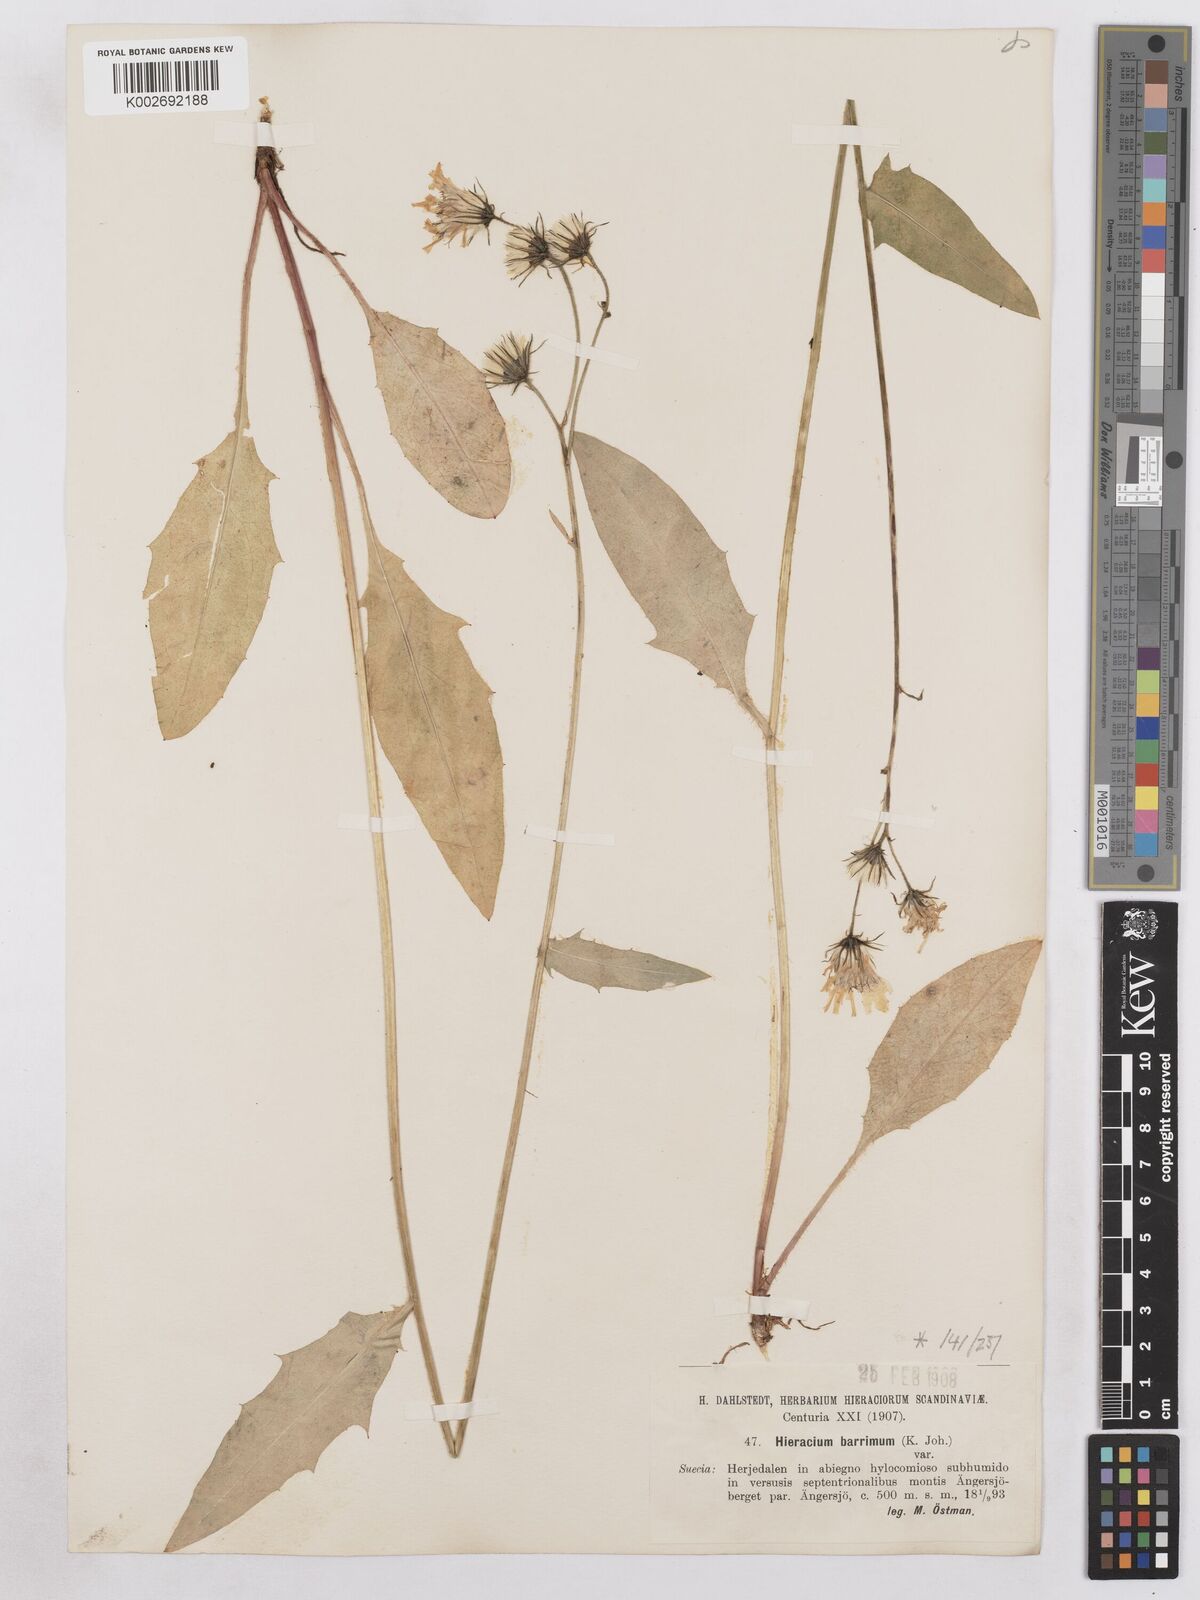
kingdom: Plantae
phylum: Tracheophyta
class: Magnoliopsida
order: Asterales
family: Asteraceae
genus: Hieracium
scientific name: Hieracium diaphanoides
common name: Fine-bracted hawkweed
